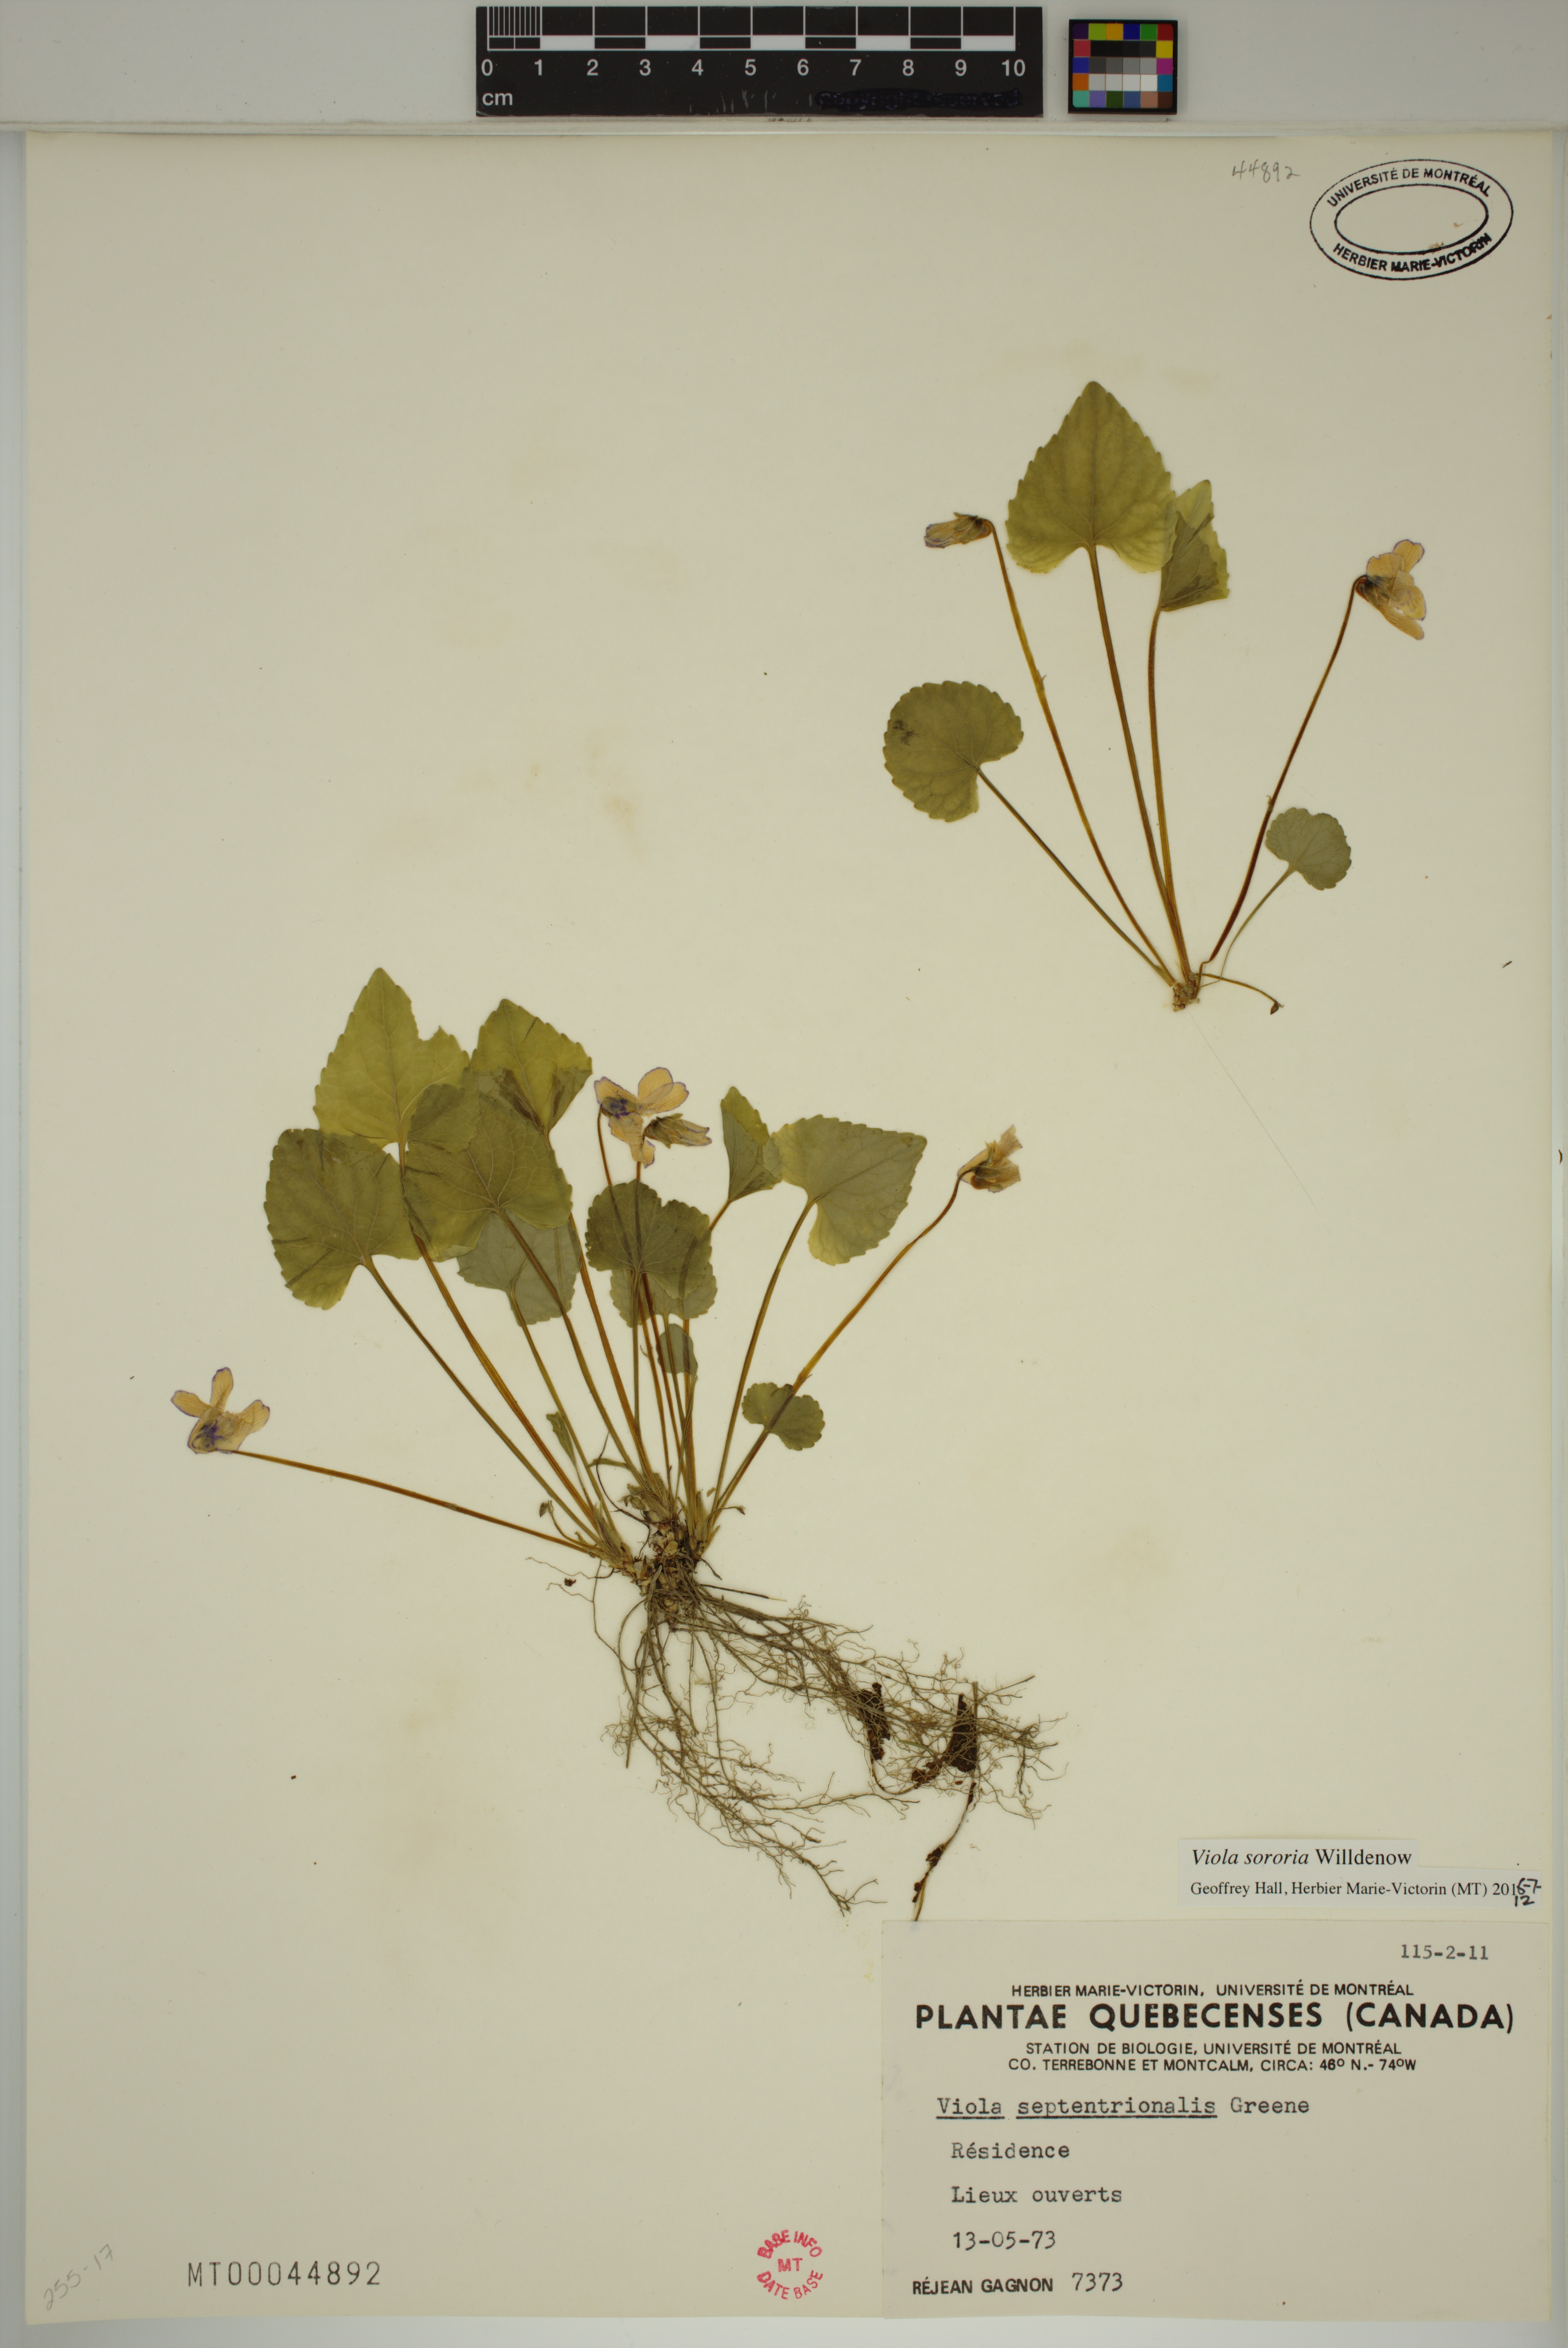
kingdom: Plantae
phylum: Tracheophyta
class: Magnoliopsida
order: Malpighiales
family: Violaceae
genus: Viola
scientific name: Viola sororia
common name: Dooryard violet
